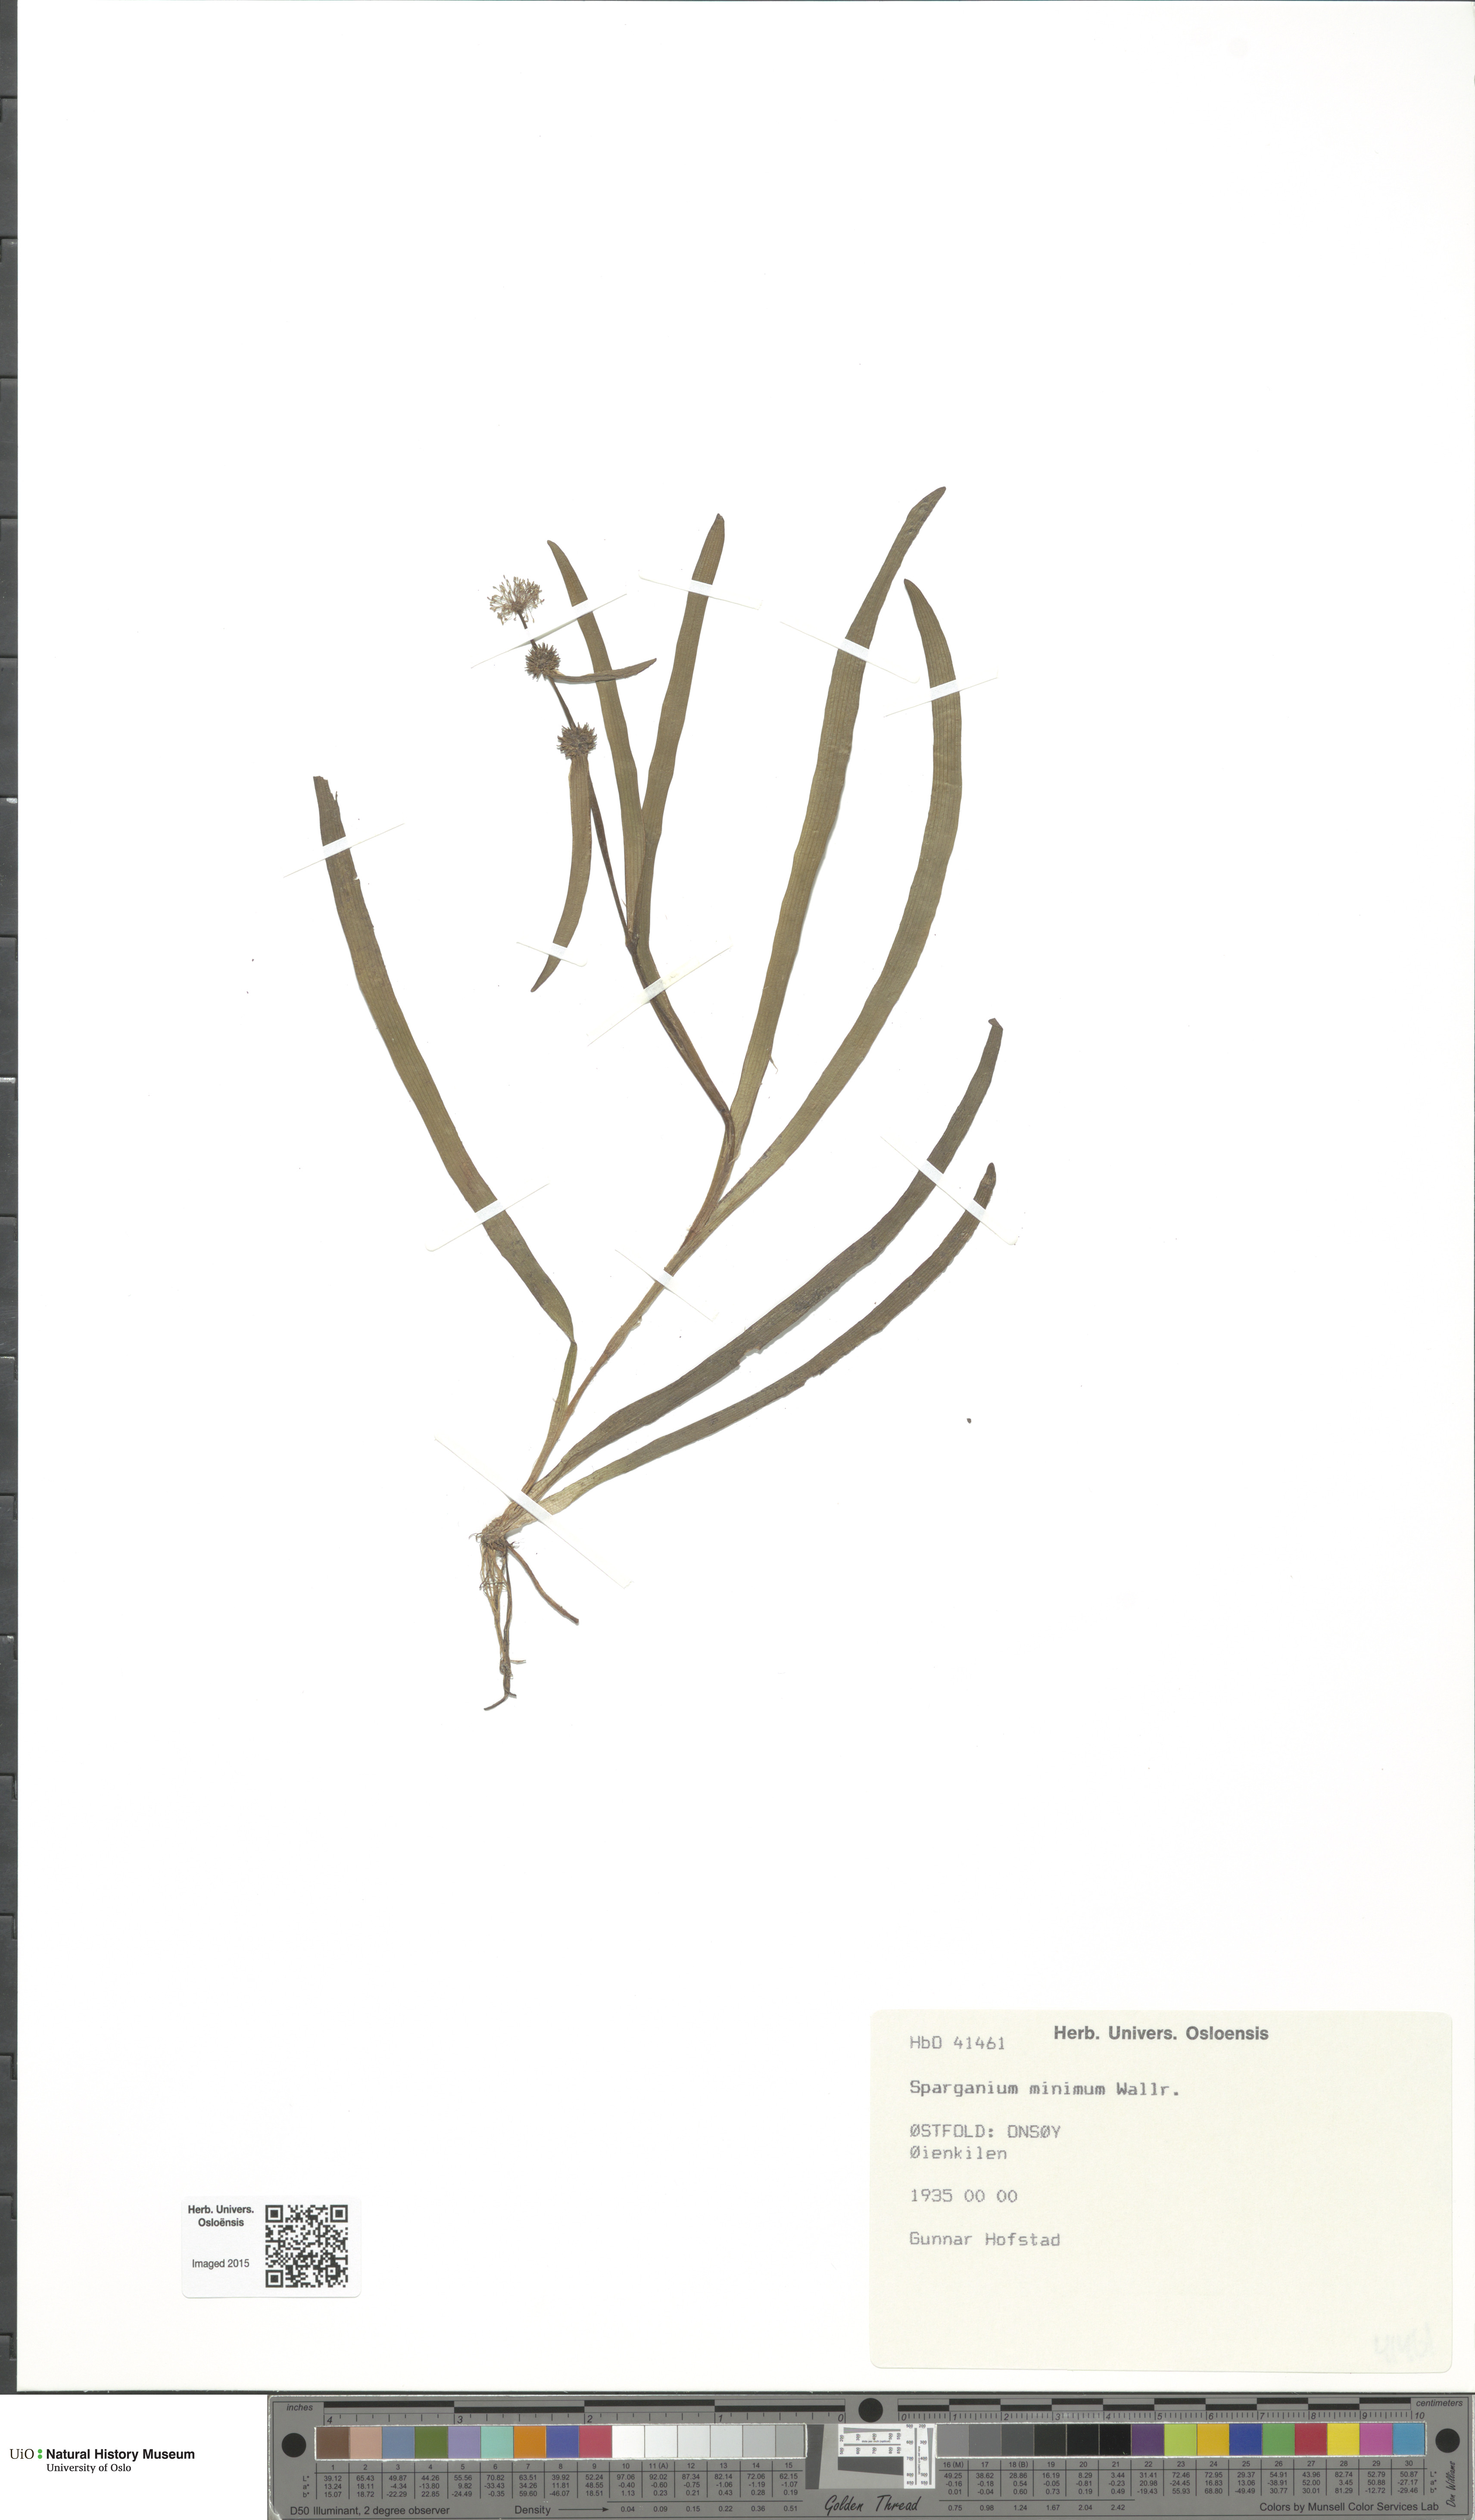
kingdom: Plantae
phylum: Tracheophyta
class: Liliopsida
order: Poales
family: Typhaceae
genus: Sparganium
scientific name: Sparganium natans
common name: Least bur-reed
